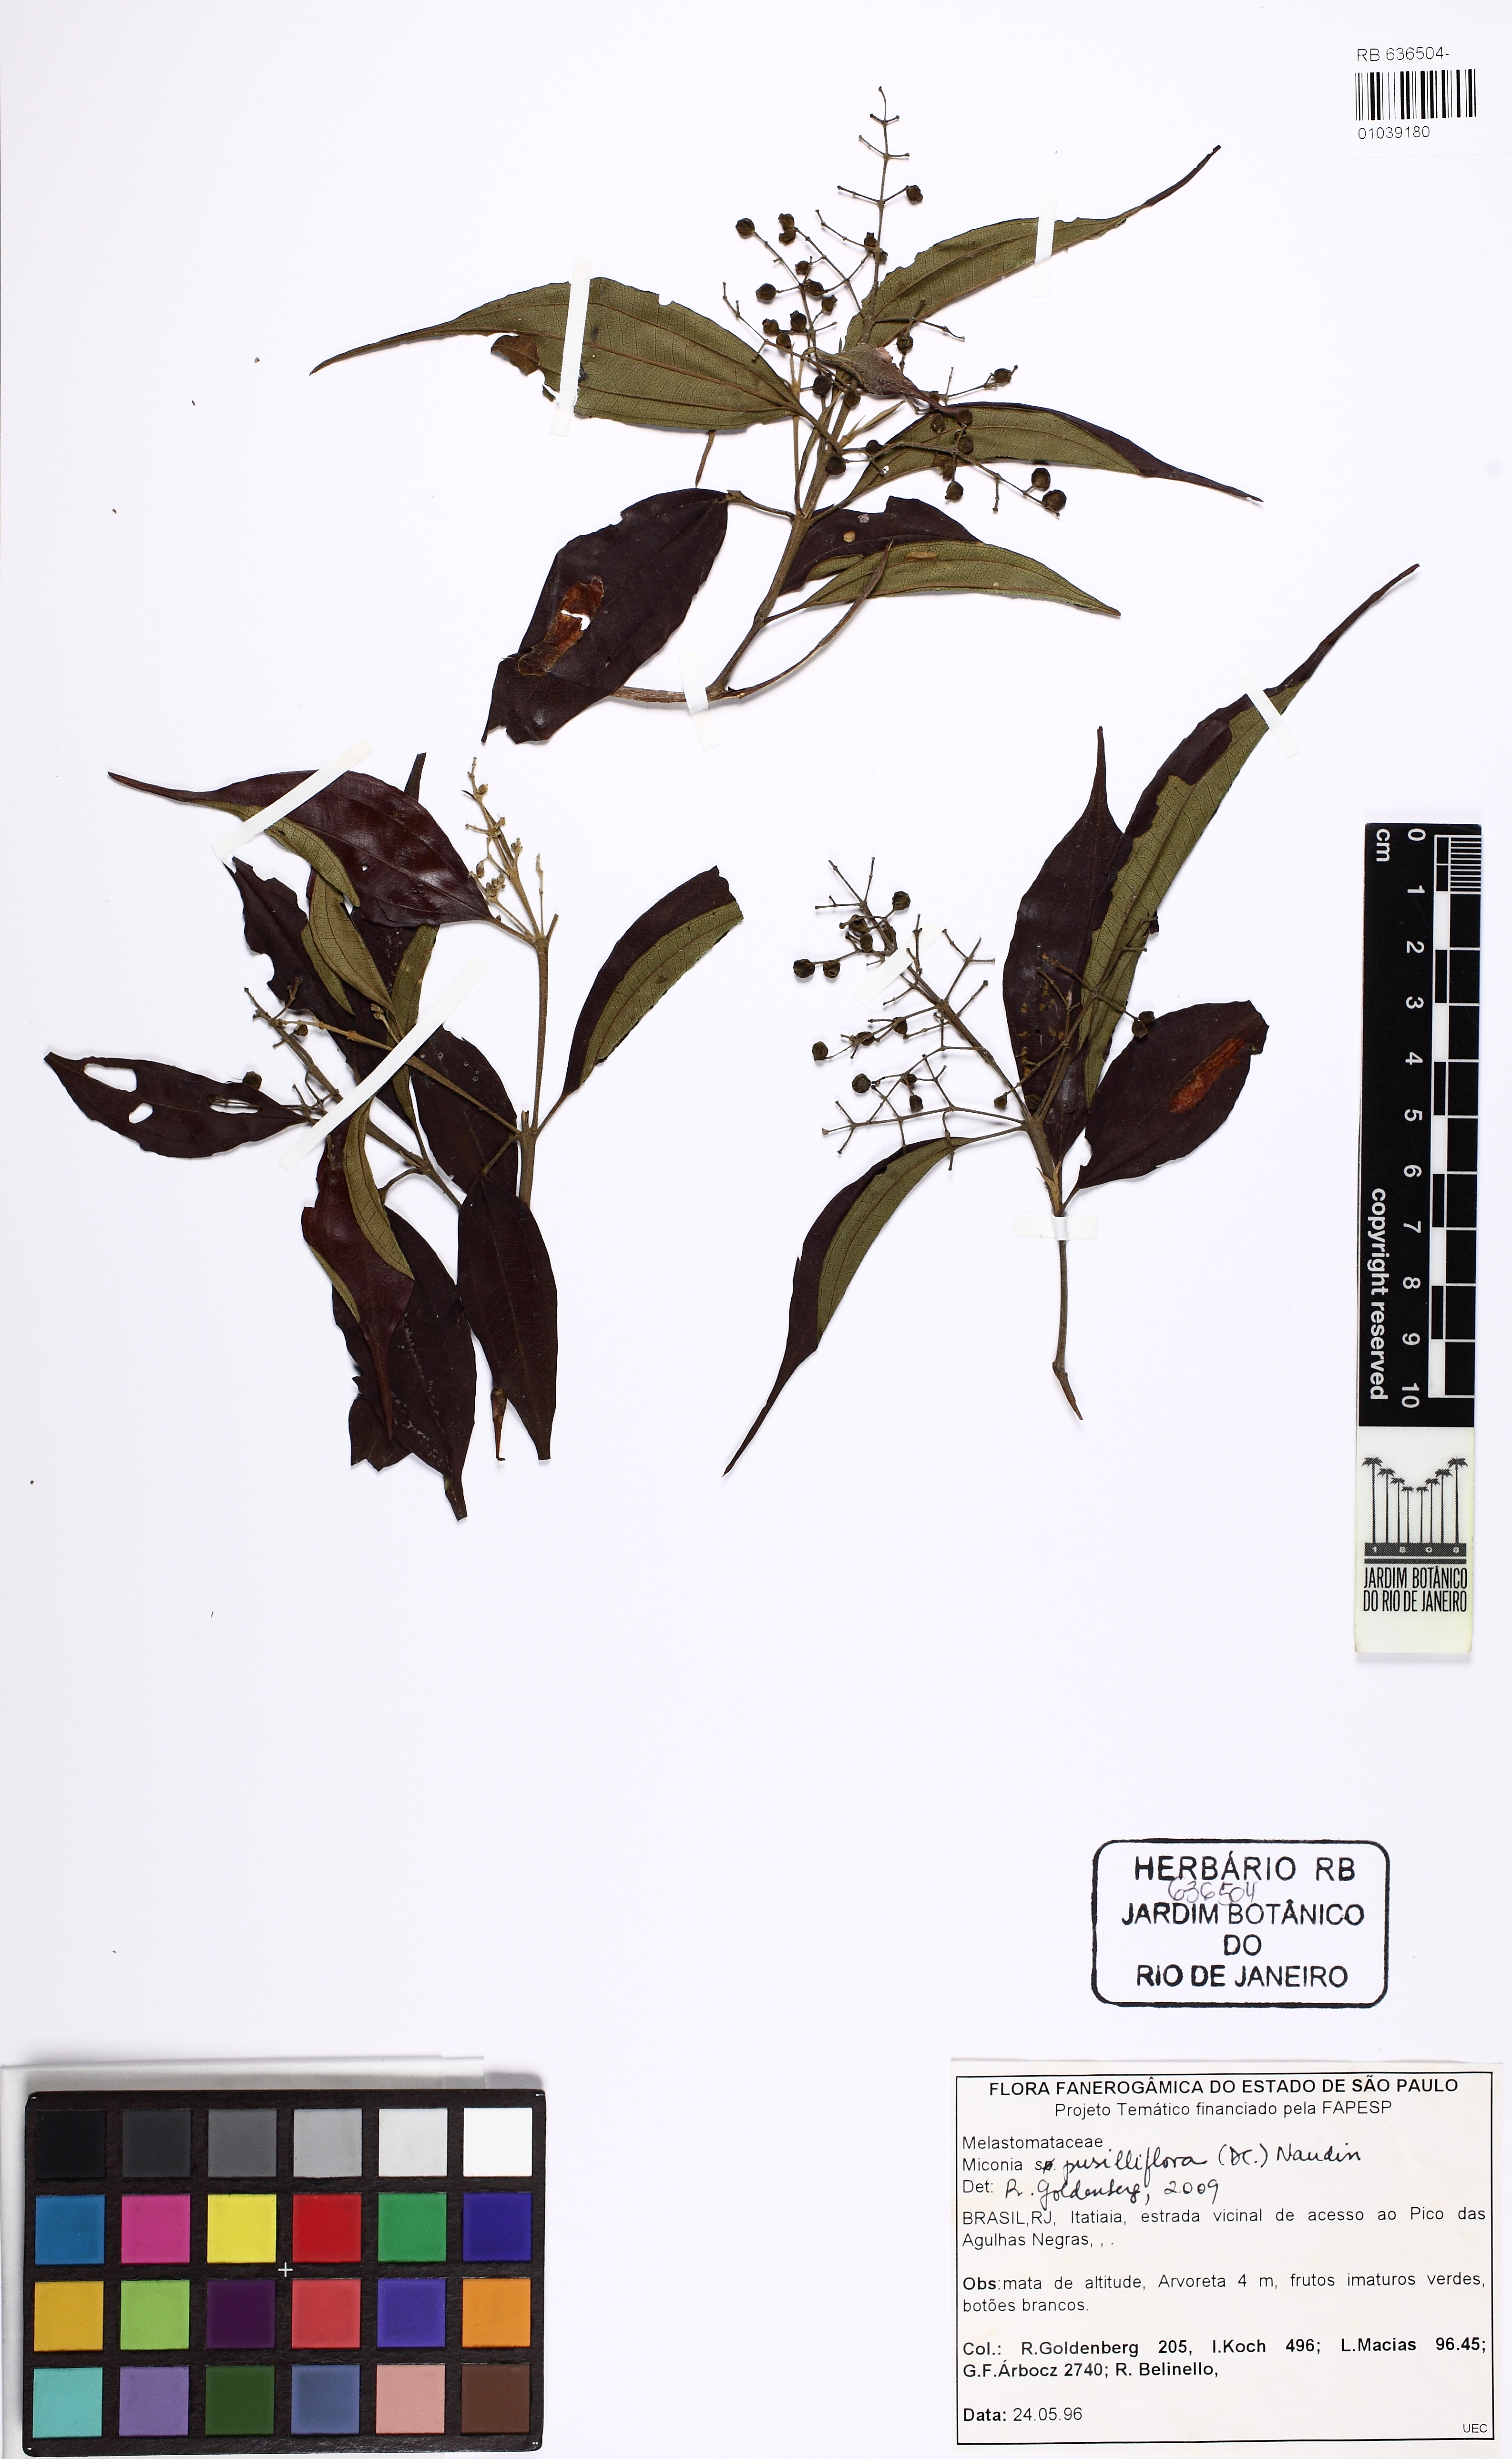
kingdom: Plantae
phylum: Tracheophyta
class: Magnoliopsida
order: Myrtales
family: Melastomataceae
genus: Miconia
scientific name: Miconia pusilliflora
